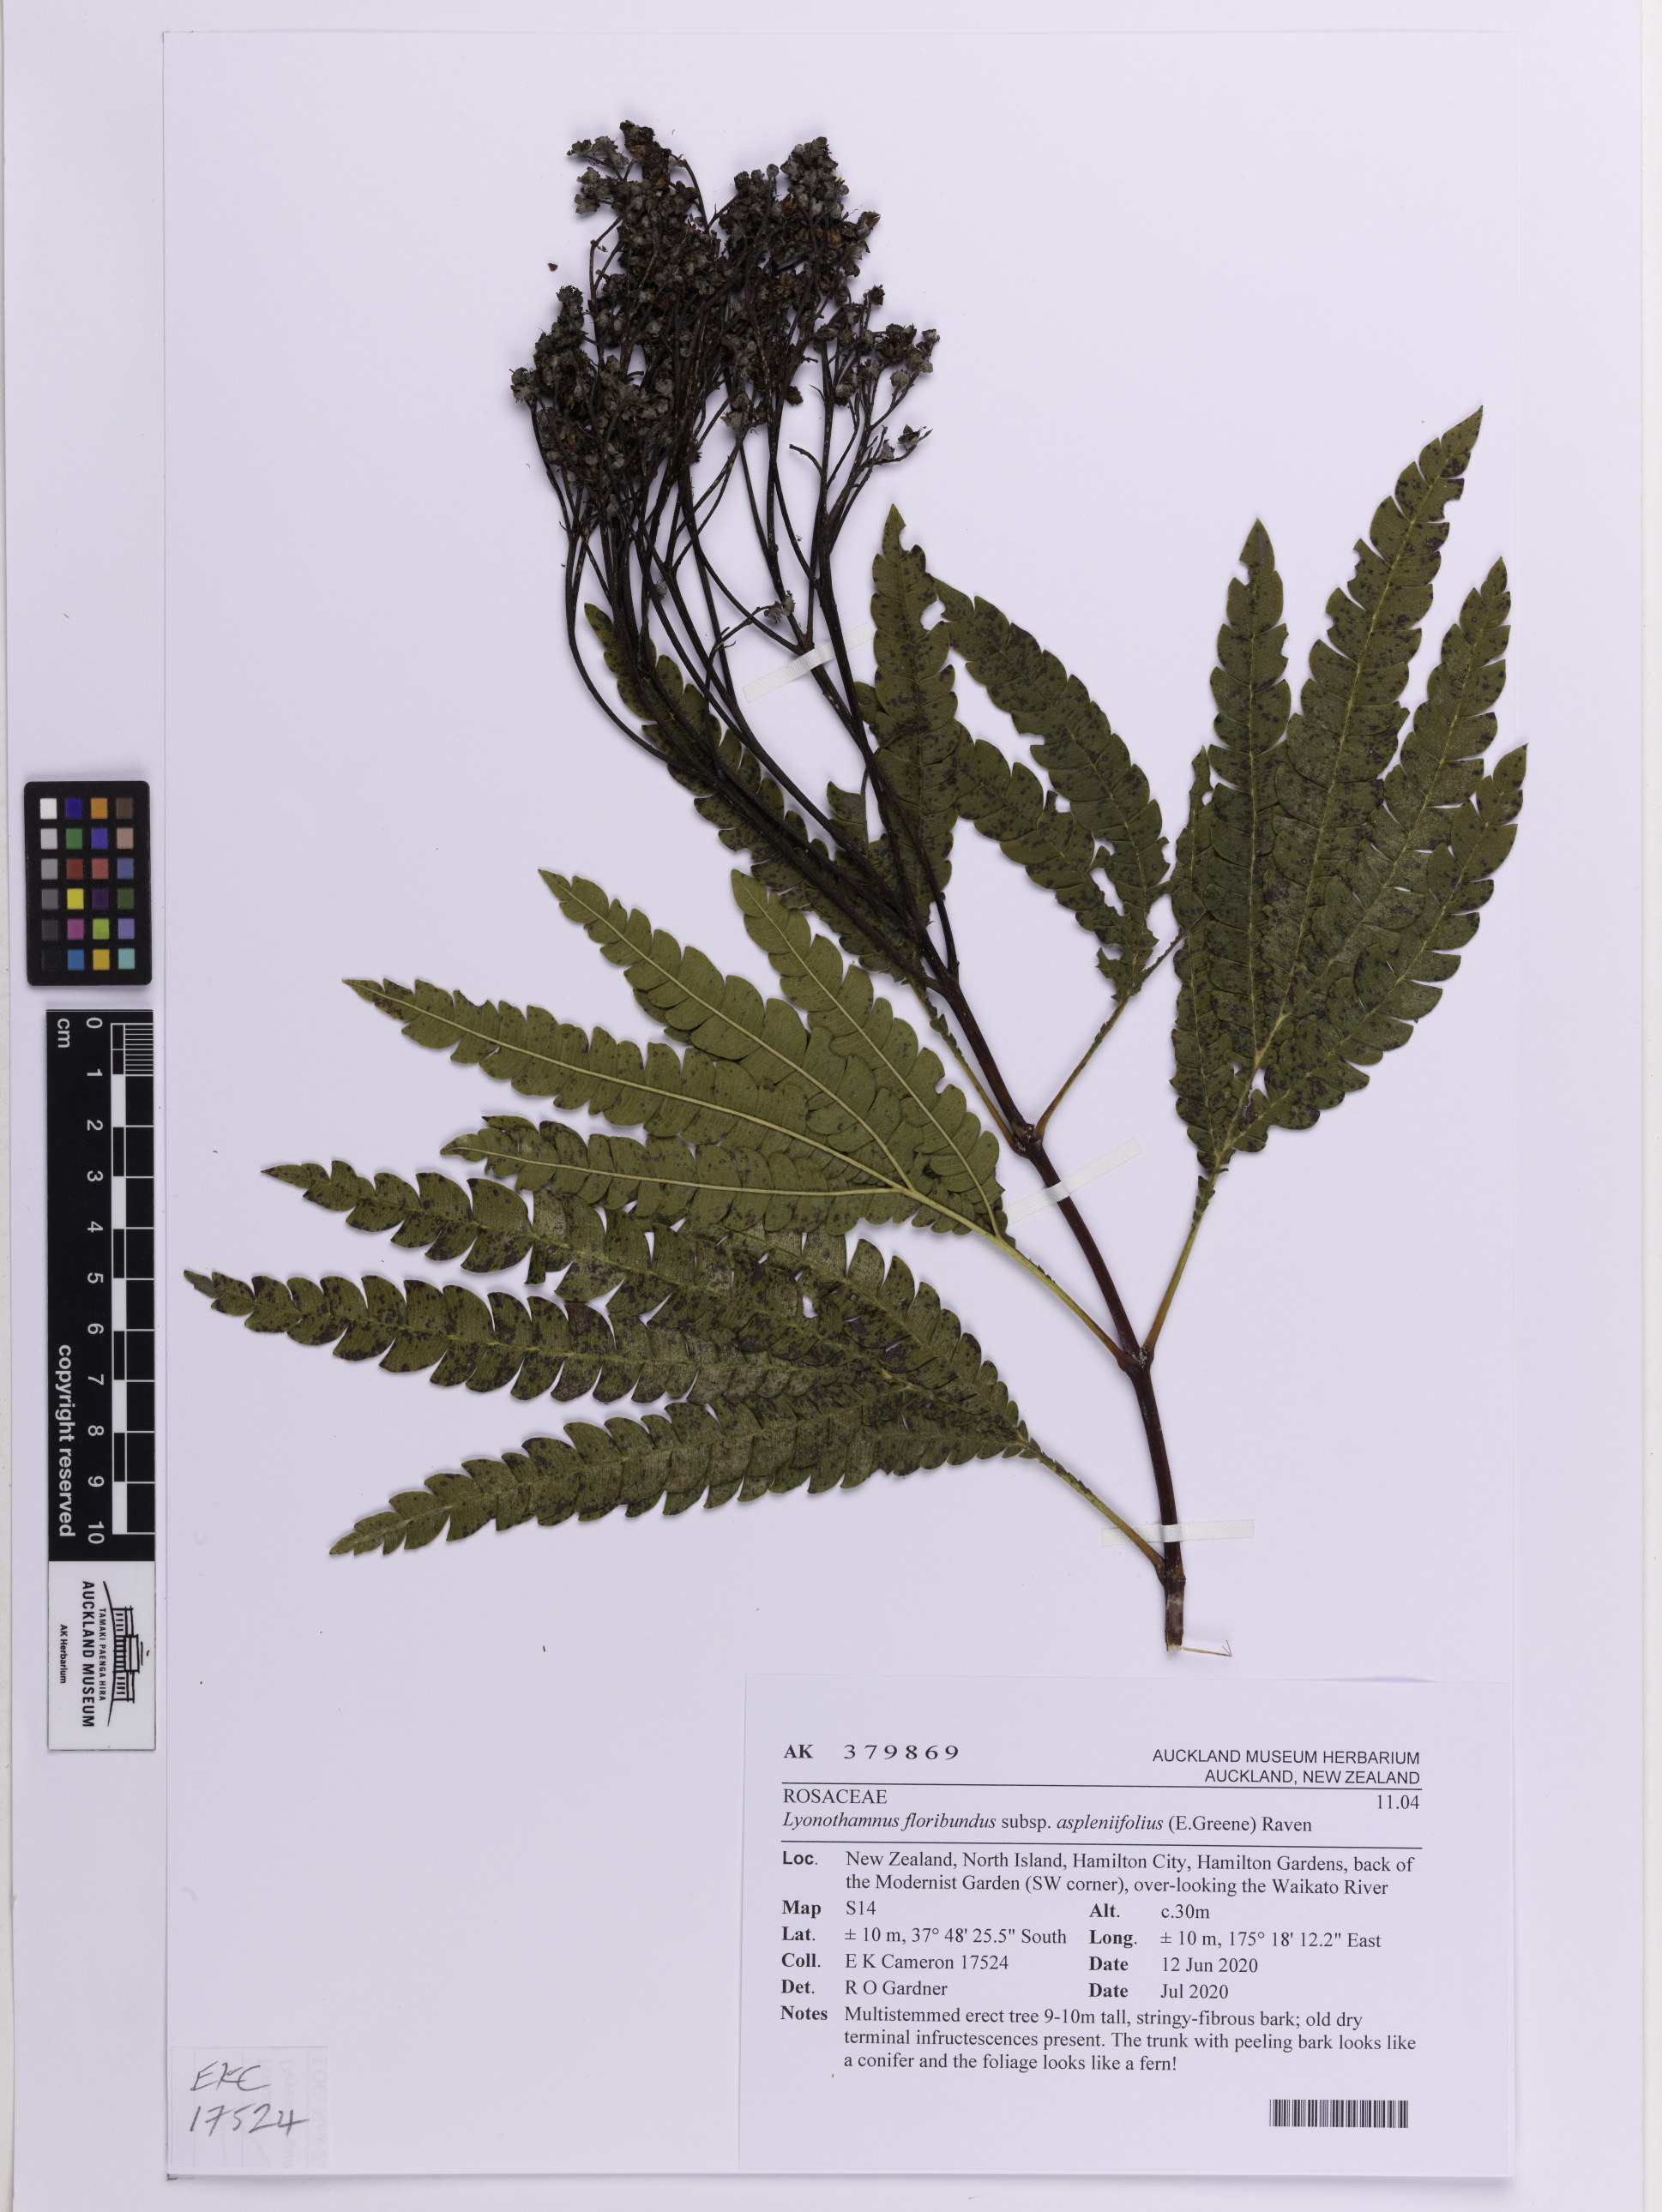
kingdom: Plantae
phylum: Tracheophyta
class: Magnoliopsida
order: Rosales
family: Rosaceae
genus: Lyonothamnus
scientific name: Lyonothamnus floribundus
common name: Catalina ironwood
